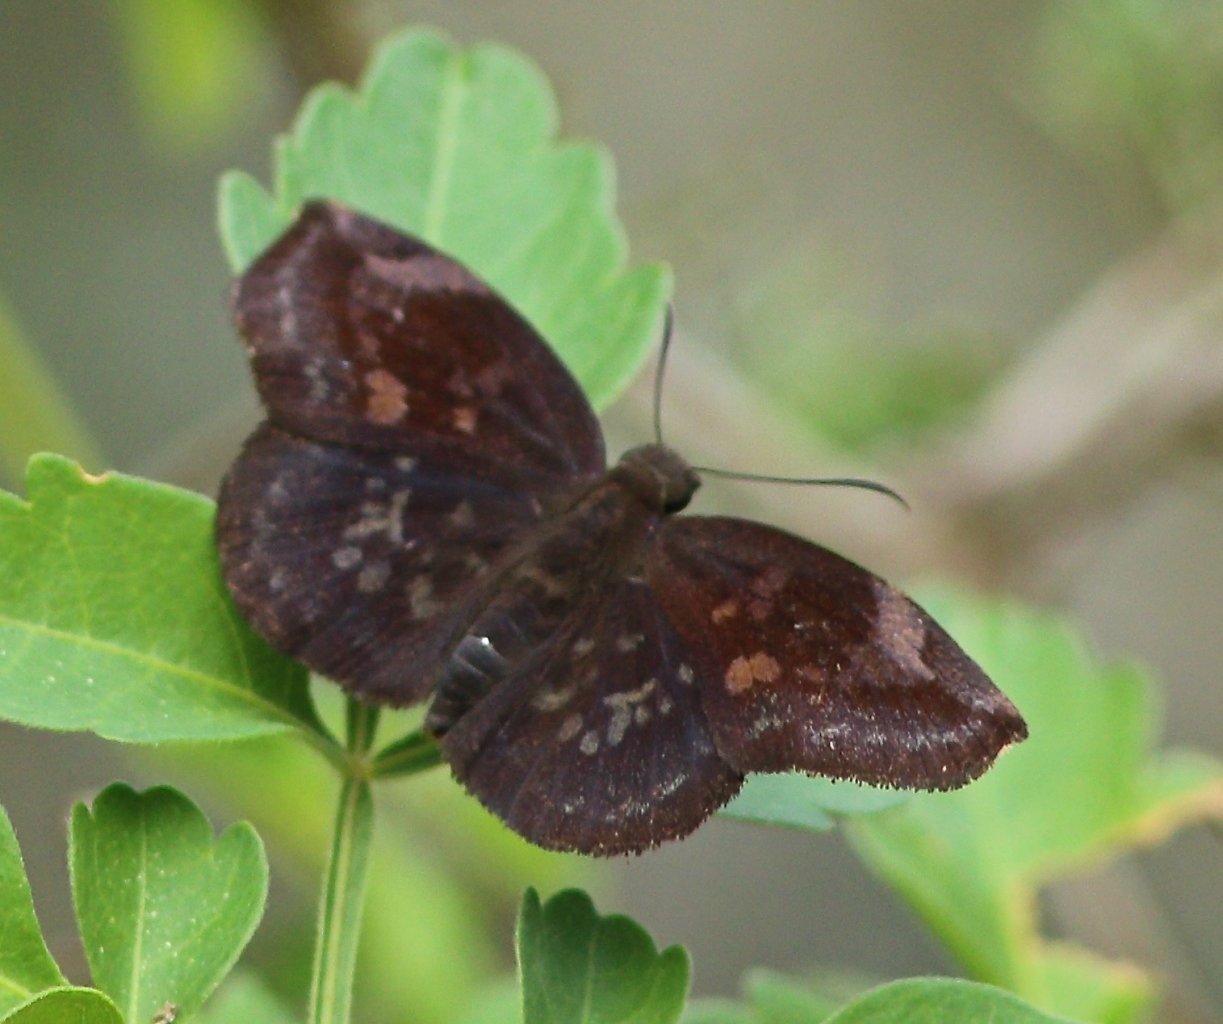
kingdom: Animalia
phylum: Arthropoda
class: Insecta
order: Lepidoptera
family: Hesperiidae
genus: Achlyodes
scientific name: Achlyodes thraso
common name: Sickle-winged Skipper
